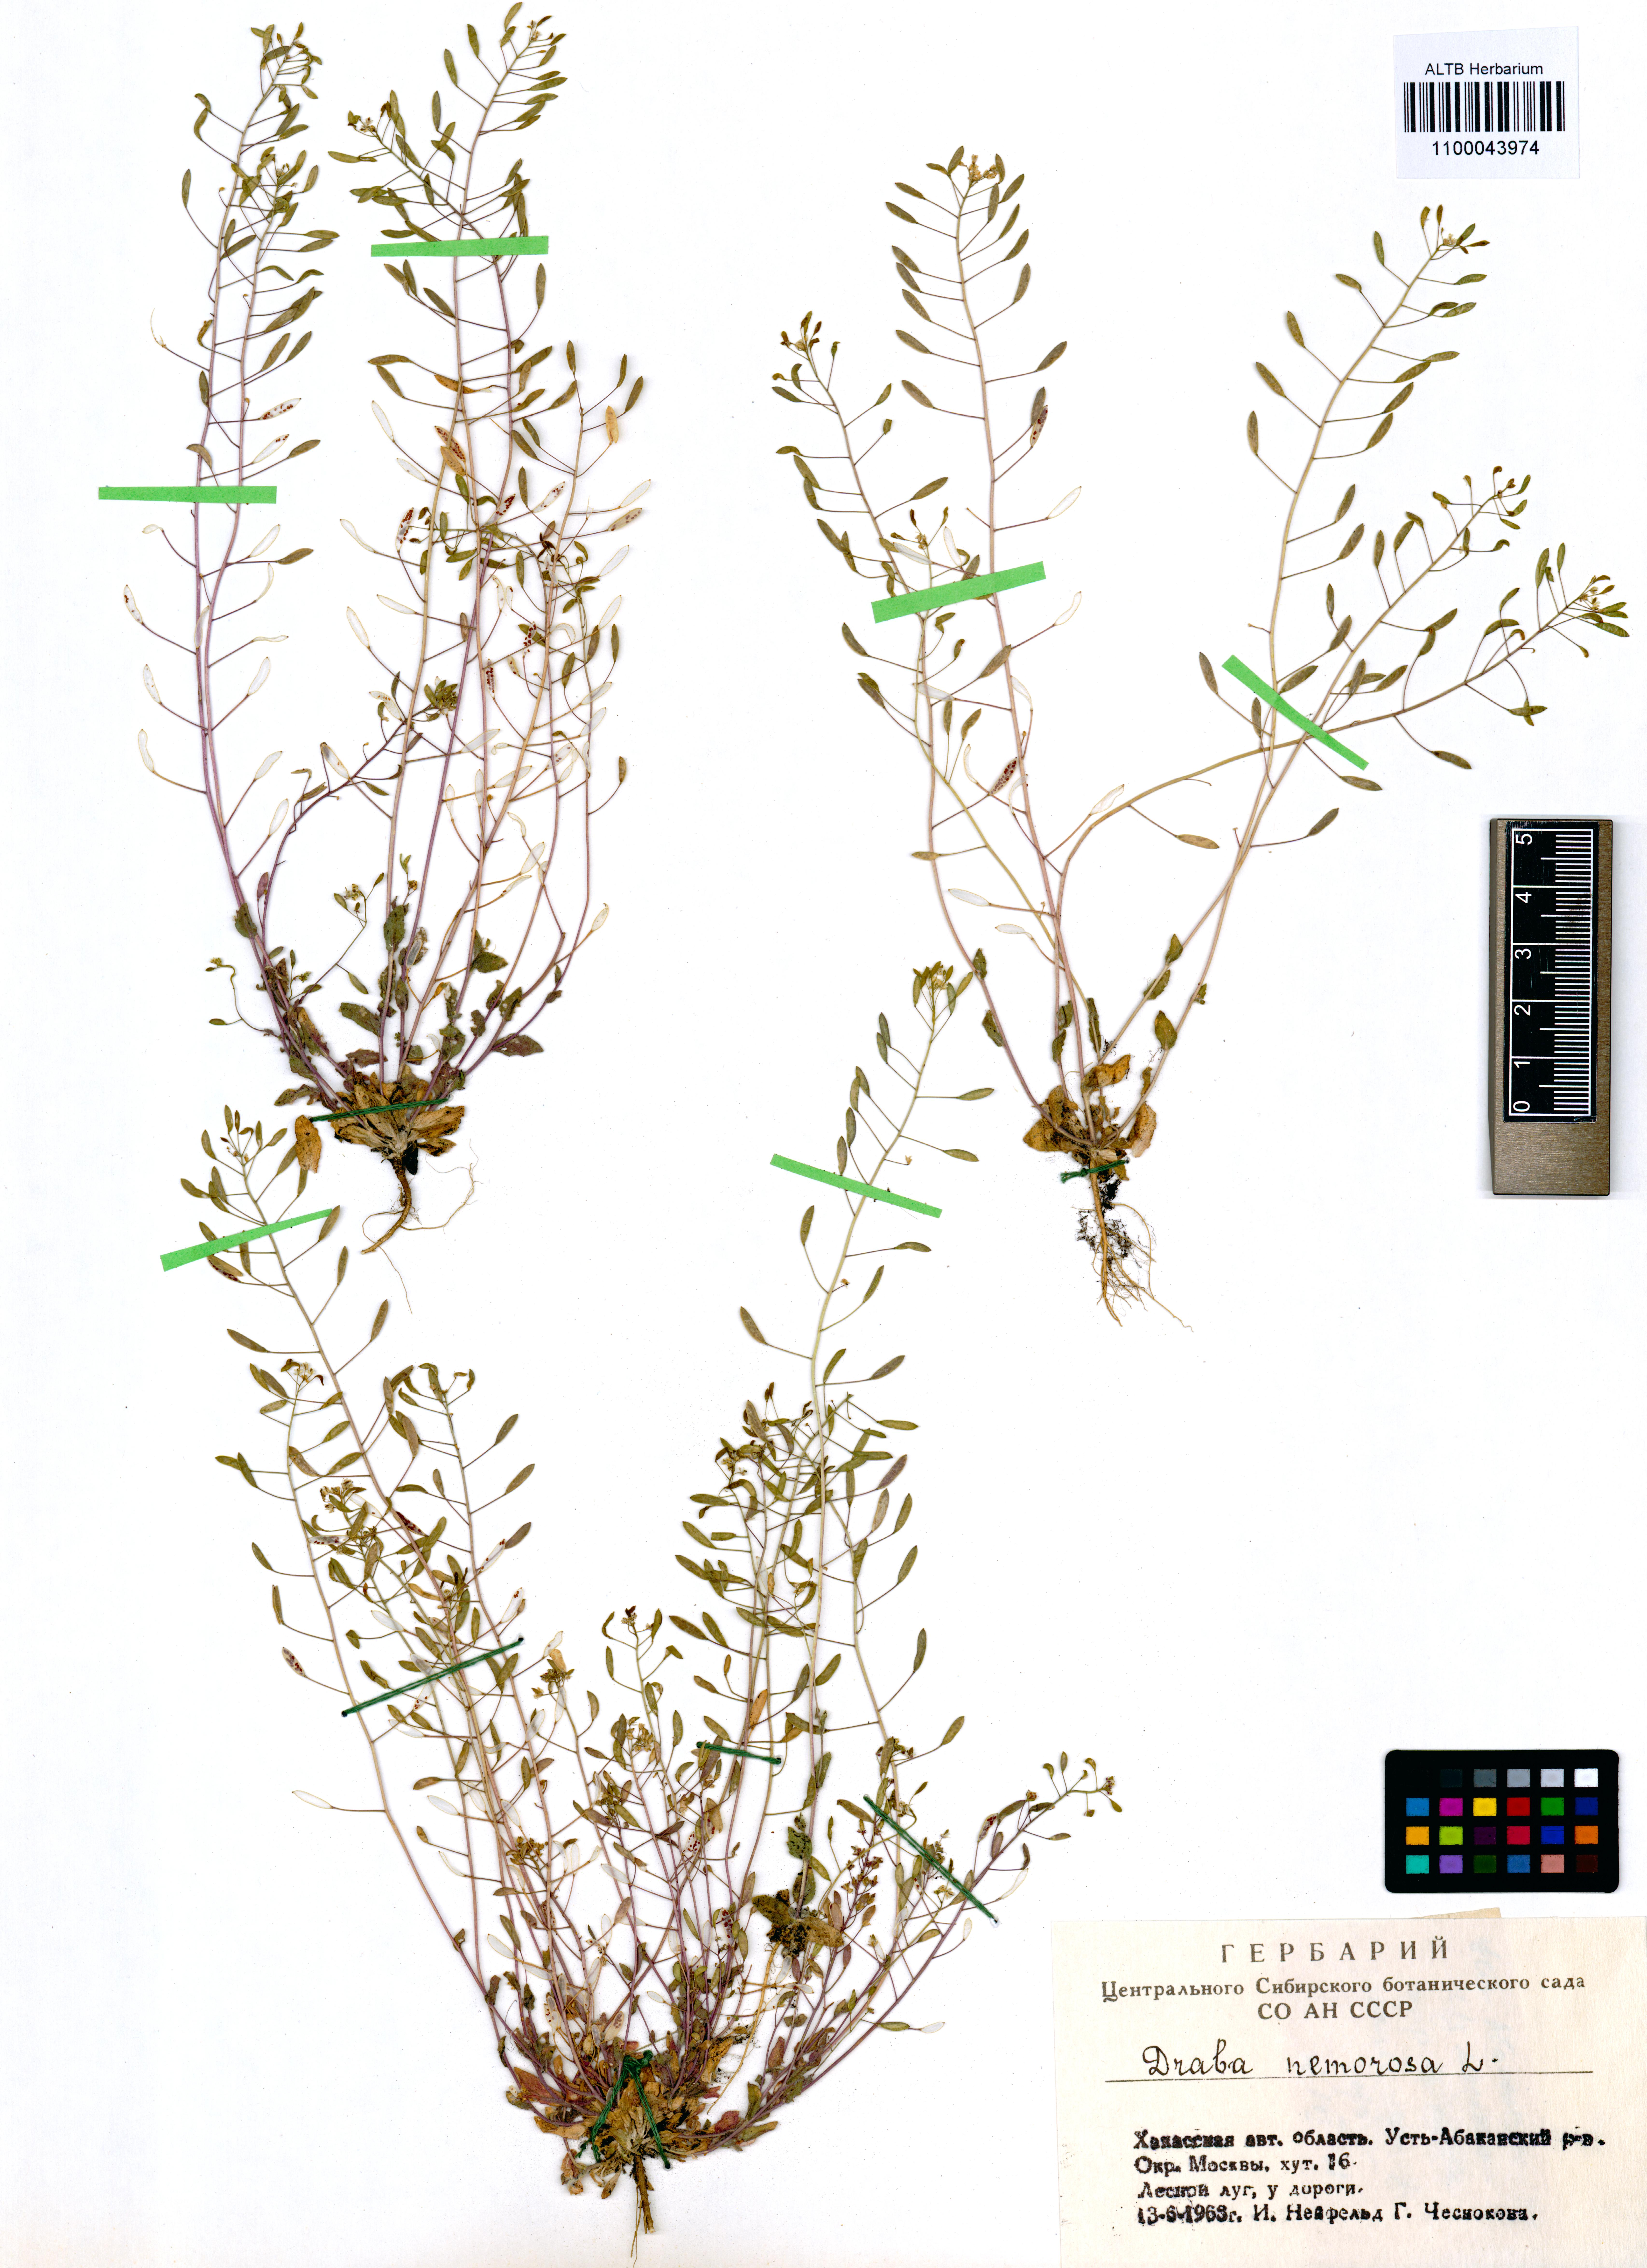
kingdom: Plantae
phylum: Tracheophyta
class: Magnoliopsida
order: Brassicales
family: Brassicaceae
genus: Draba
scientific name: Draba nemorosa
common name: Wood whitlow-grass
